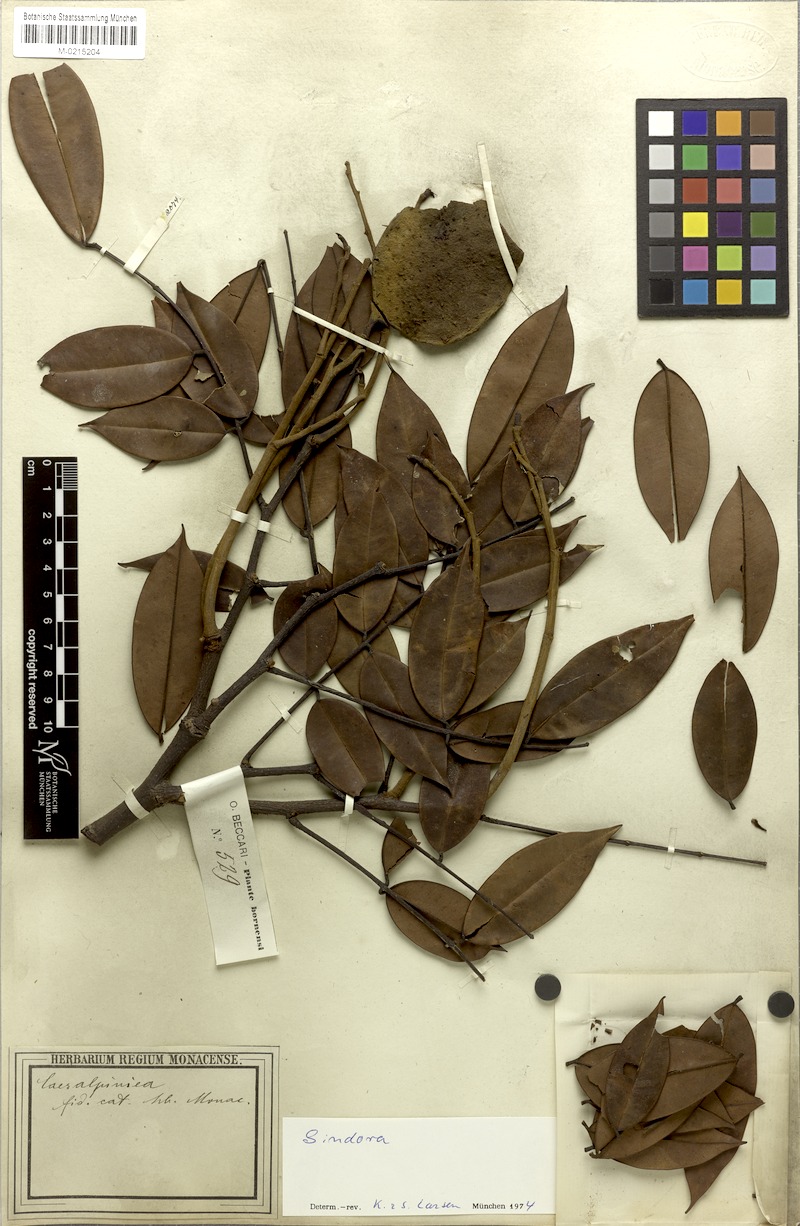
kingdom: Plantae
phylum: Tracheophyta
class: Magnoliopsida
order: Fabales
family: Fabaceae
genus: Sindora
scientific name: Sindora beccariana
